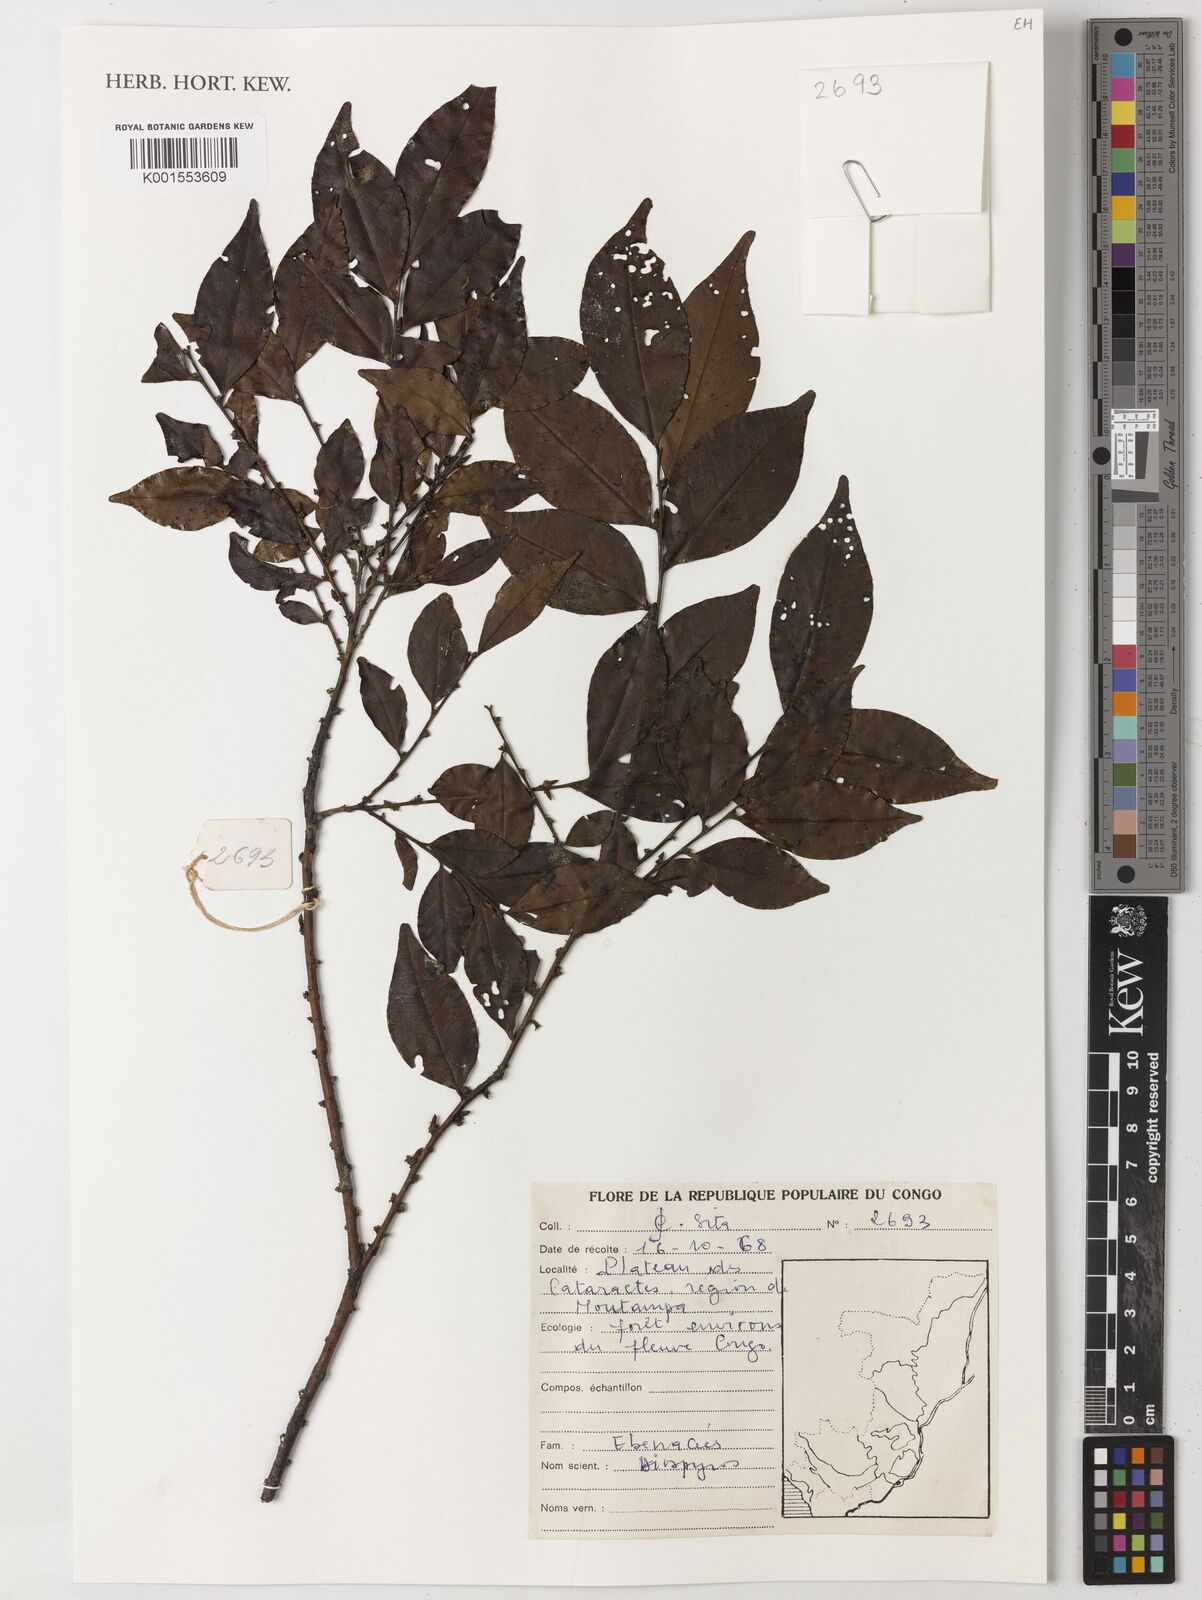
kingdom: Plantae
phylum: Tracheophyta
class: Magnoliopsida
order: Ericales
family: Ebenaceae
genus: Diospyros
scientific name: Diospyros
